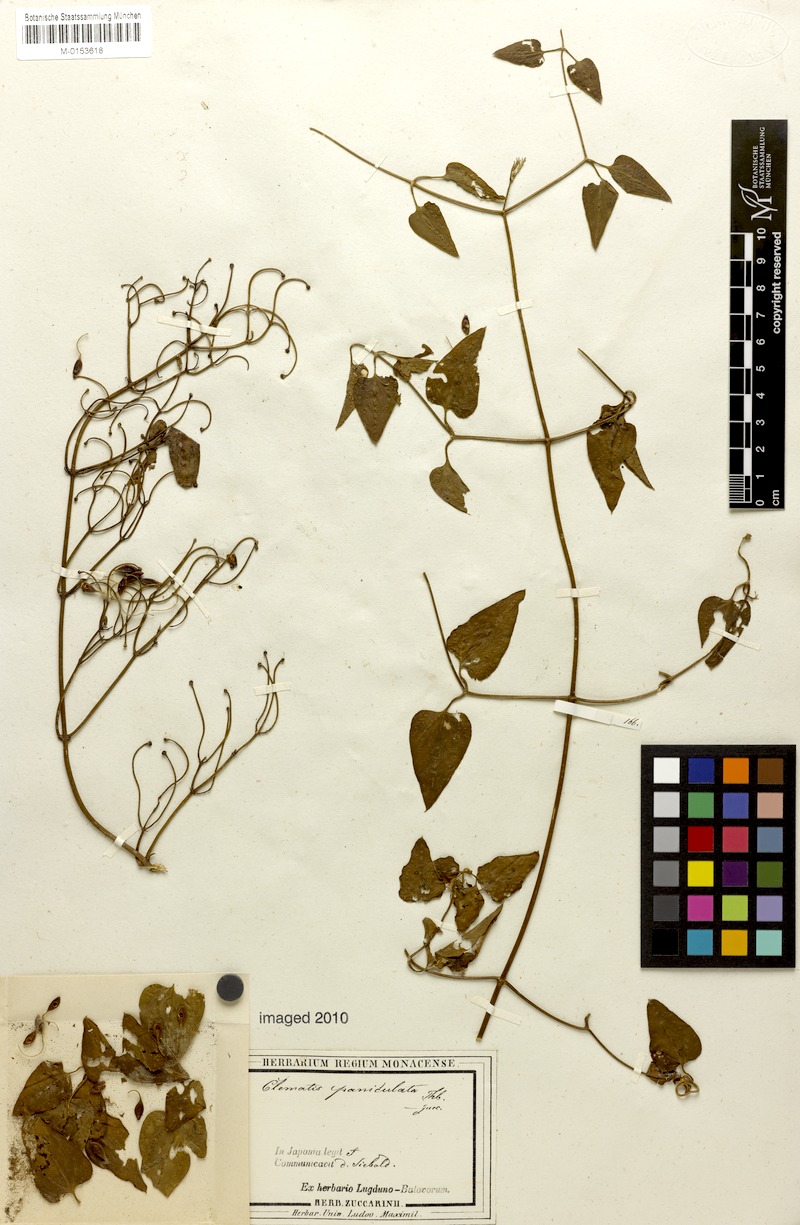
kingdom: Plantae
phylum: Tracheophyta
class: Magnoliopsida
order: Ranunculales
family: Ranunculaceae
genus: Clematis
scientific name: Clematis terniflora
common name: Sweet autumn clematis
